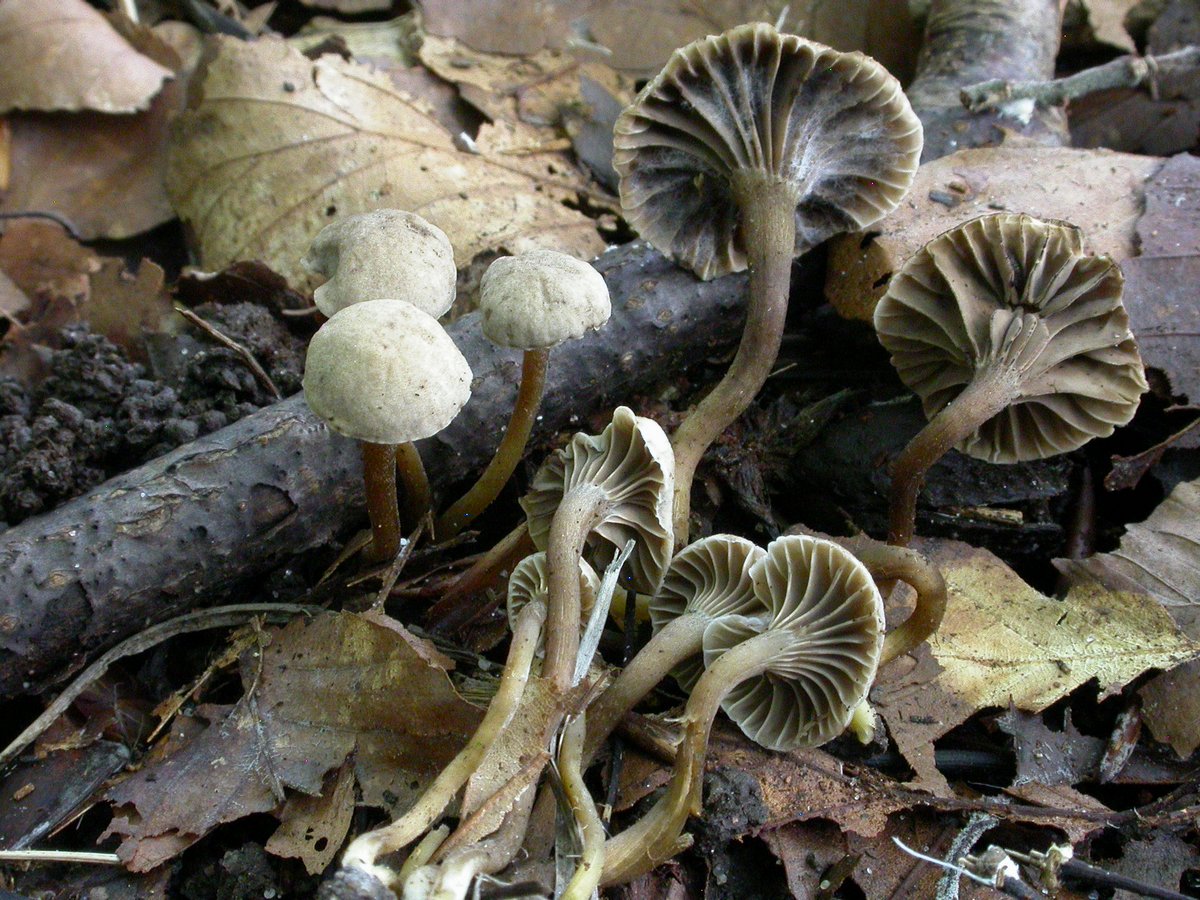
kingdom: Fungi
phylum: Basidiomycota
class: Agaricomycetes
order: Agaricales
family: Clavariaceae
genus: Hodophilus
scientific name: Hodophilus
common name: kratvokshat
